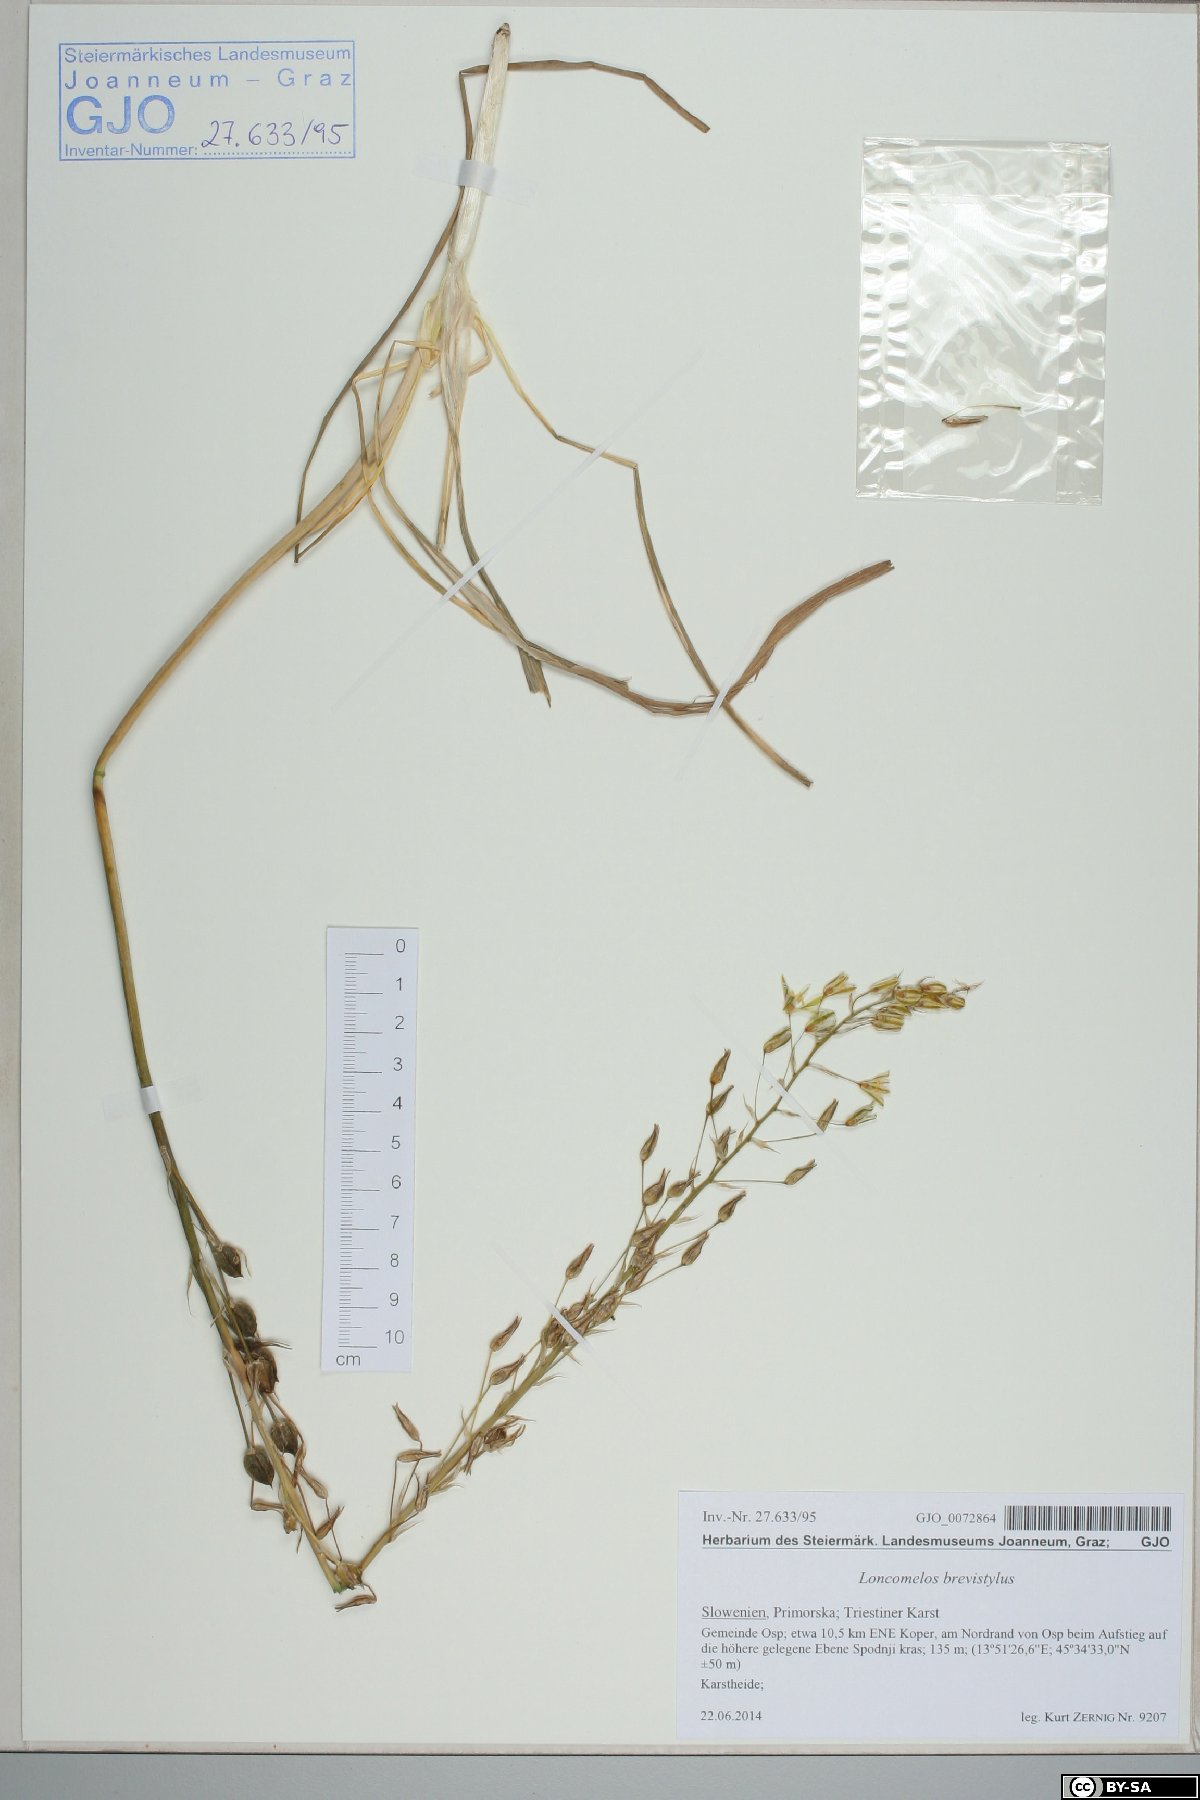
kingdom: Plantae
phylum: Tracheophyta
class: Liliopsida
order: Asparagales
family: Asparagaceae
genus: Ornithogalum
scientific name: Ornithogalum pyramidale
